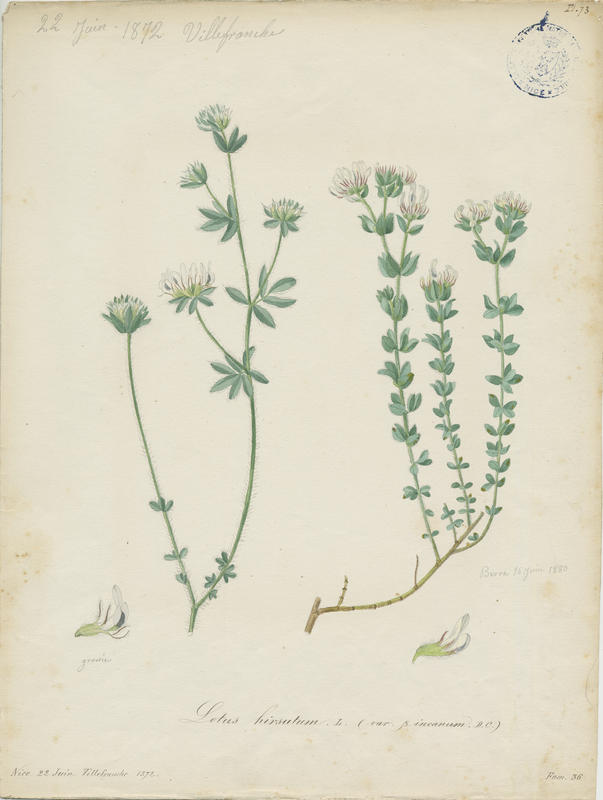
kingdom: Plantae
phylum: Tracheophyta
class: Magnoliopsida
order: Fabales
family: Fabaceae
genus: Lotus
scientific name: Lotus hirsutus
